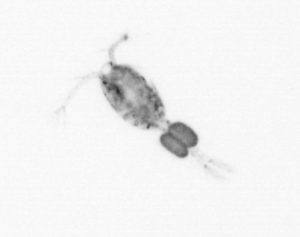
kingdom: Animalia
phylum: Arthropoda
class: Copepoda
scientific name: Copepoda
